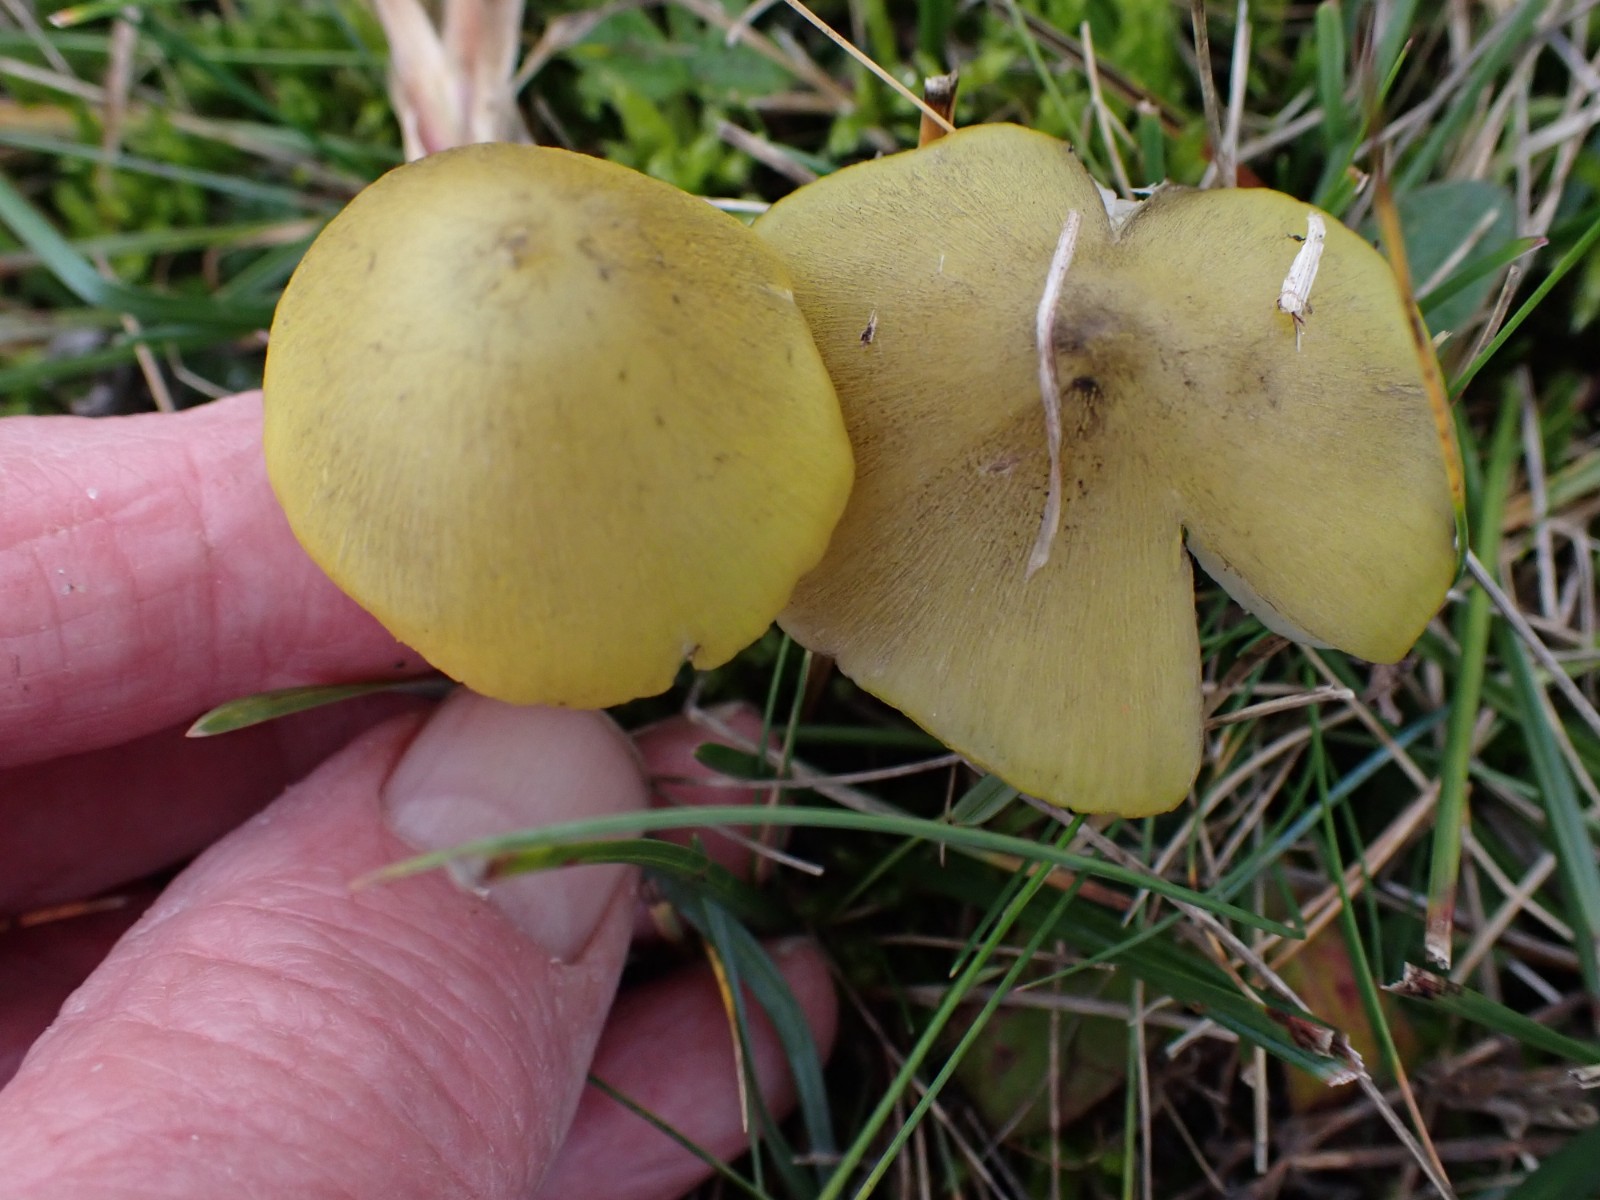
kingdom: Fungi
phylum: Basidiomycota
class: Agaricomycetes
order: Agaricales
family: Hygrophoraceae
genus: Hygrocybe
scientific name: Hygrocybe conica
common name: Blackening wax-cap
